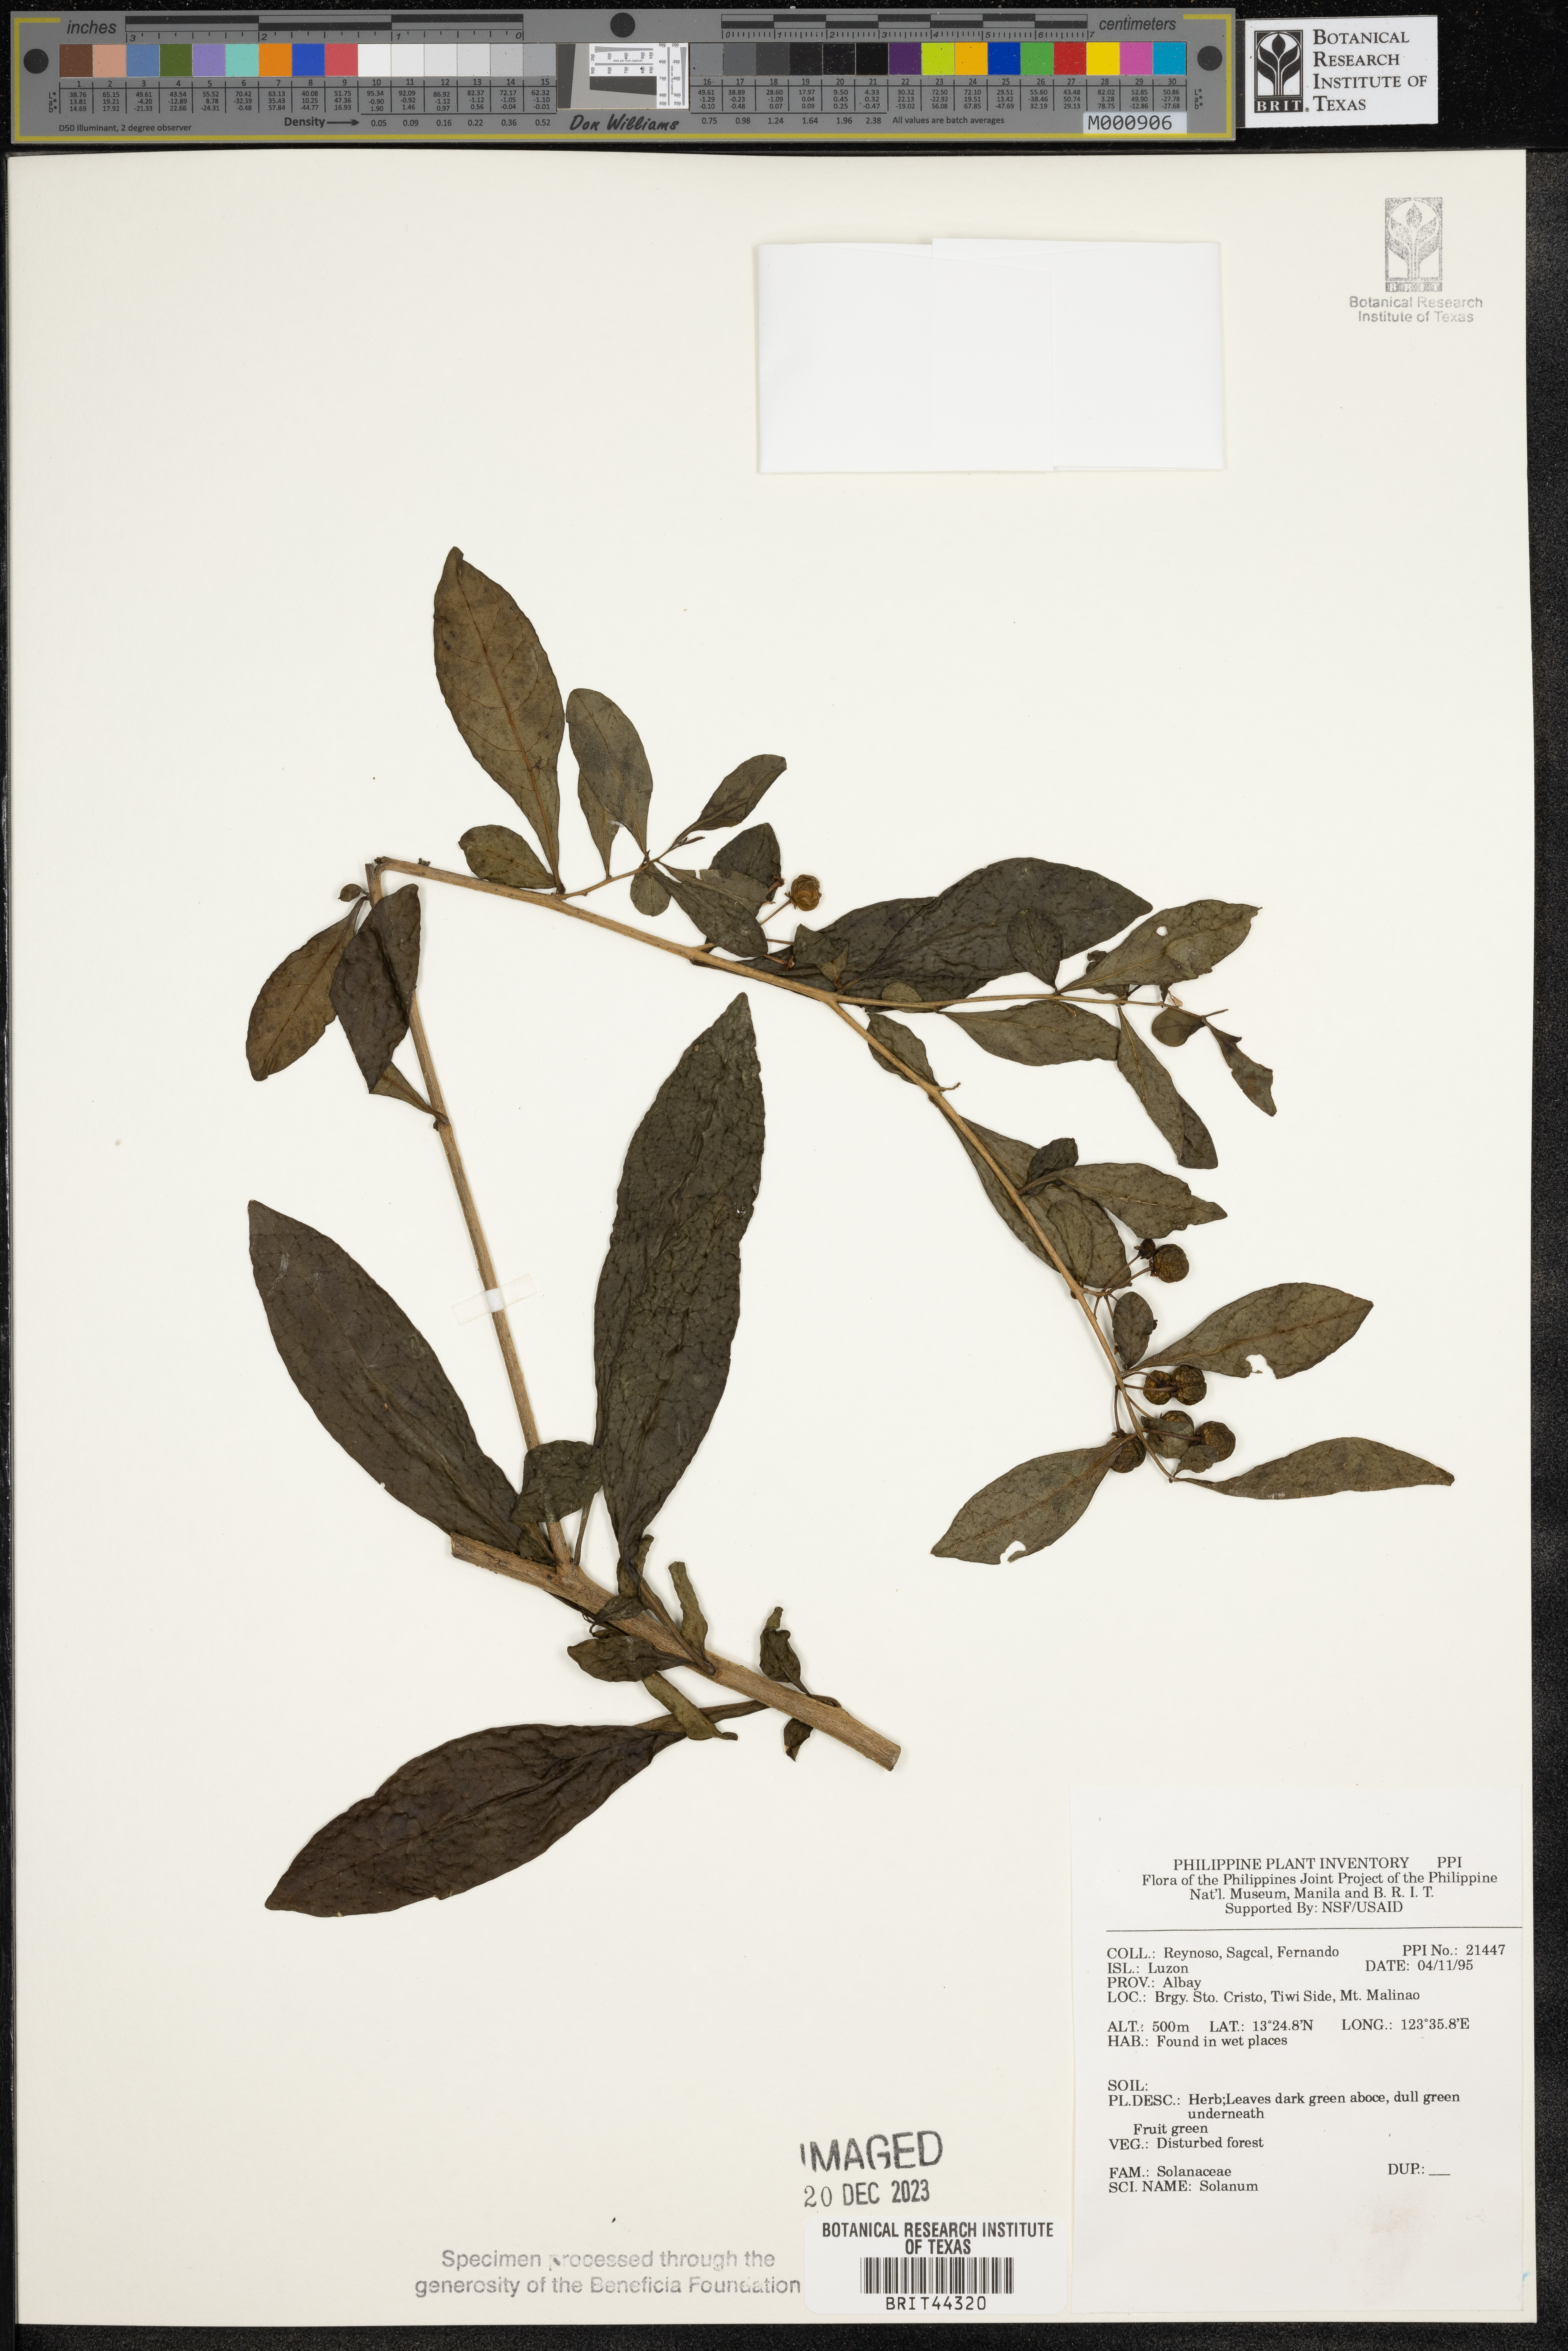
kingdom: Plantae
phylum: Tracheophyta
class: Magnoliopsida
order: Solanales
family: Solanaceae
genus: Solanum
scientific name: Solanum
